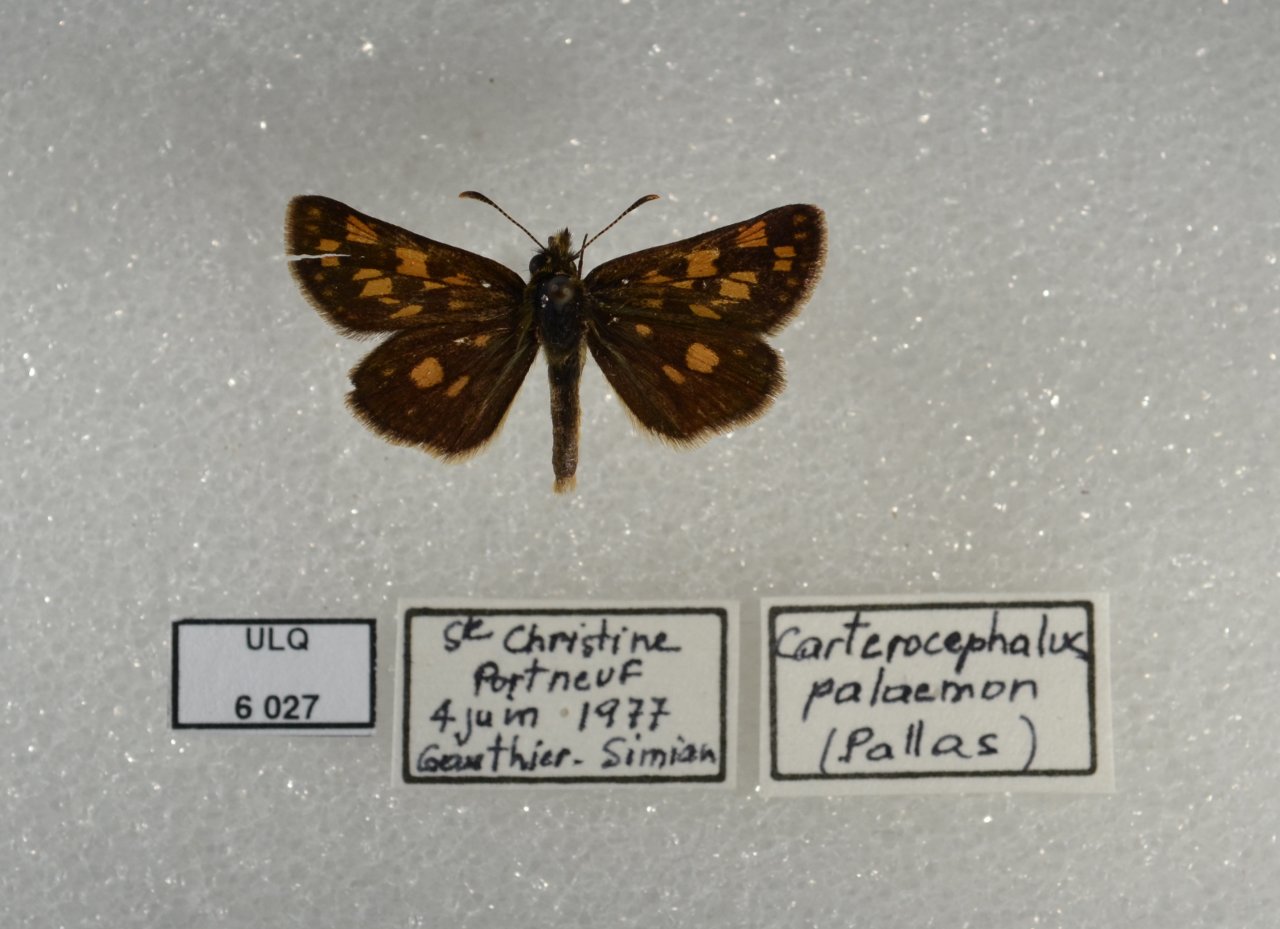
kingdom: Animalia
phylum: Arthropoda
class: Insecta
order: Lepidoptera
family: Hesperiidae
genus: Carterocephalus
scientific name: Carterocephalus palaemon
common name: Chequered Skipper
